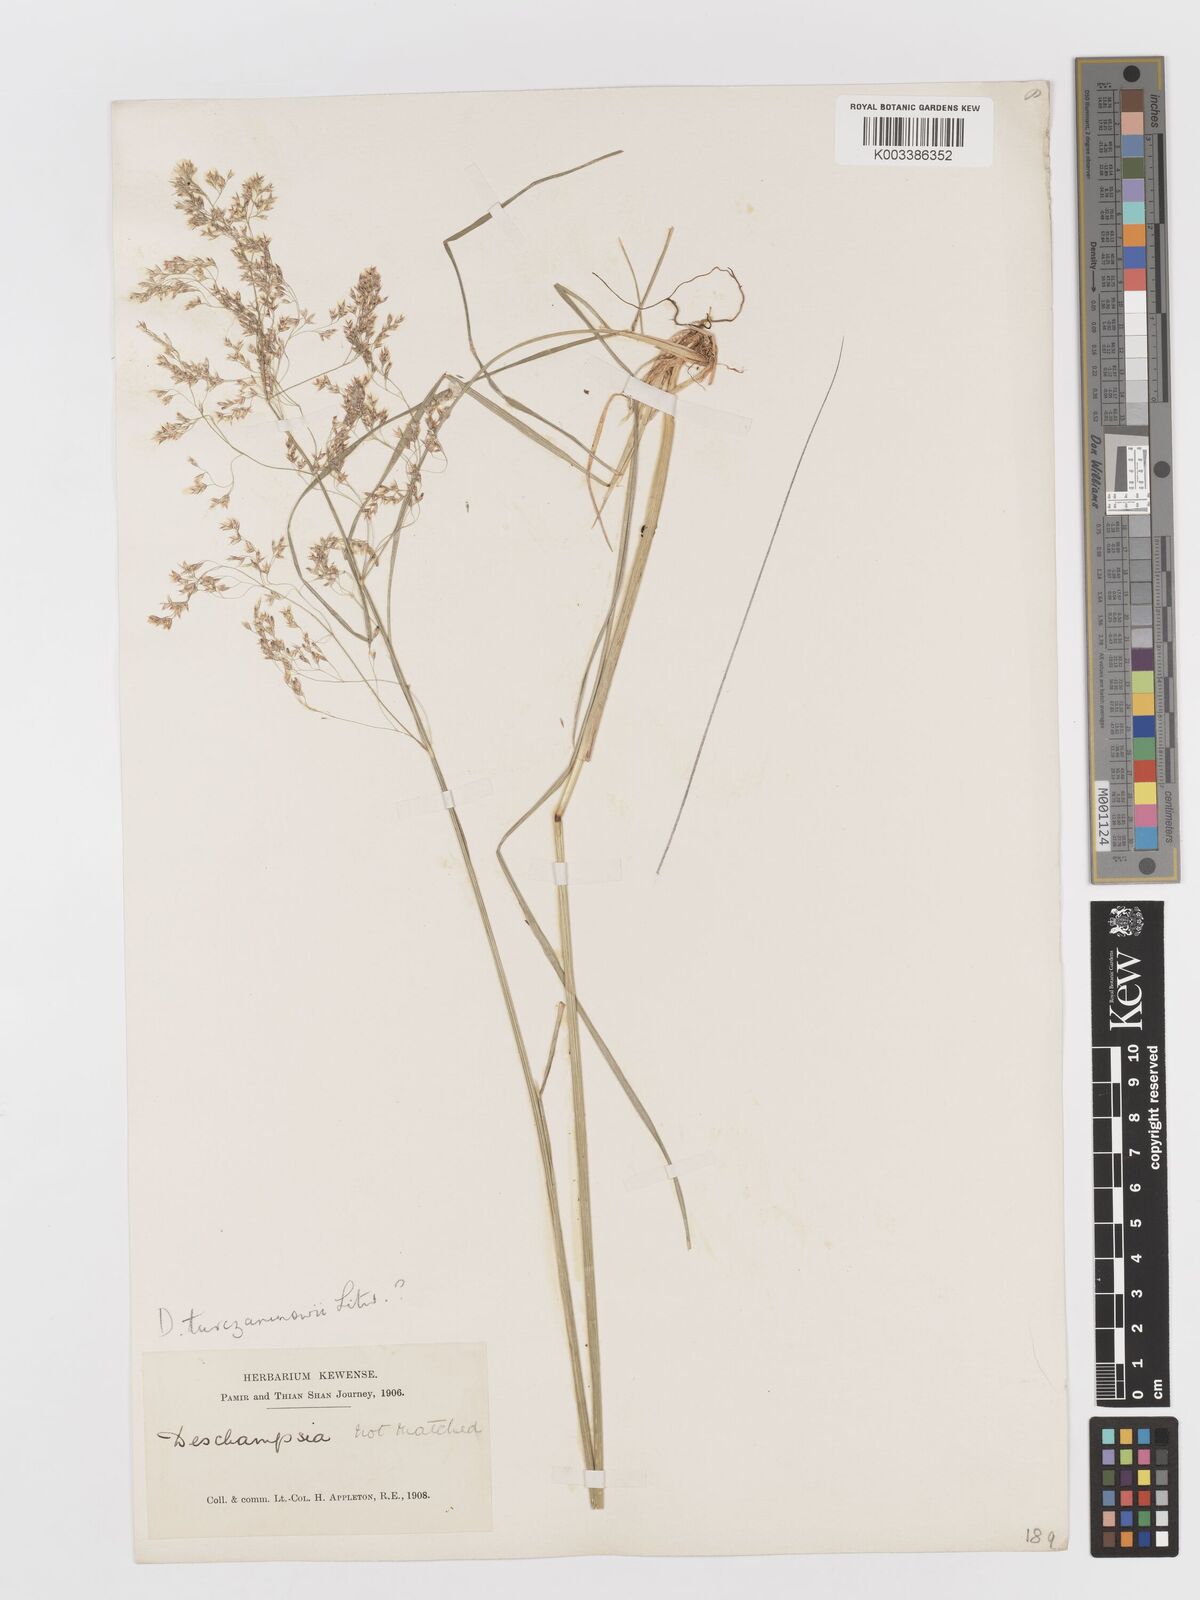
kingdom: Plantae
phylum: Tracheophyta
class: Liliopsida
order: Poales
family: Poaceae
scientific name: Poaceae
